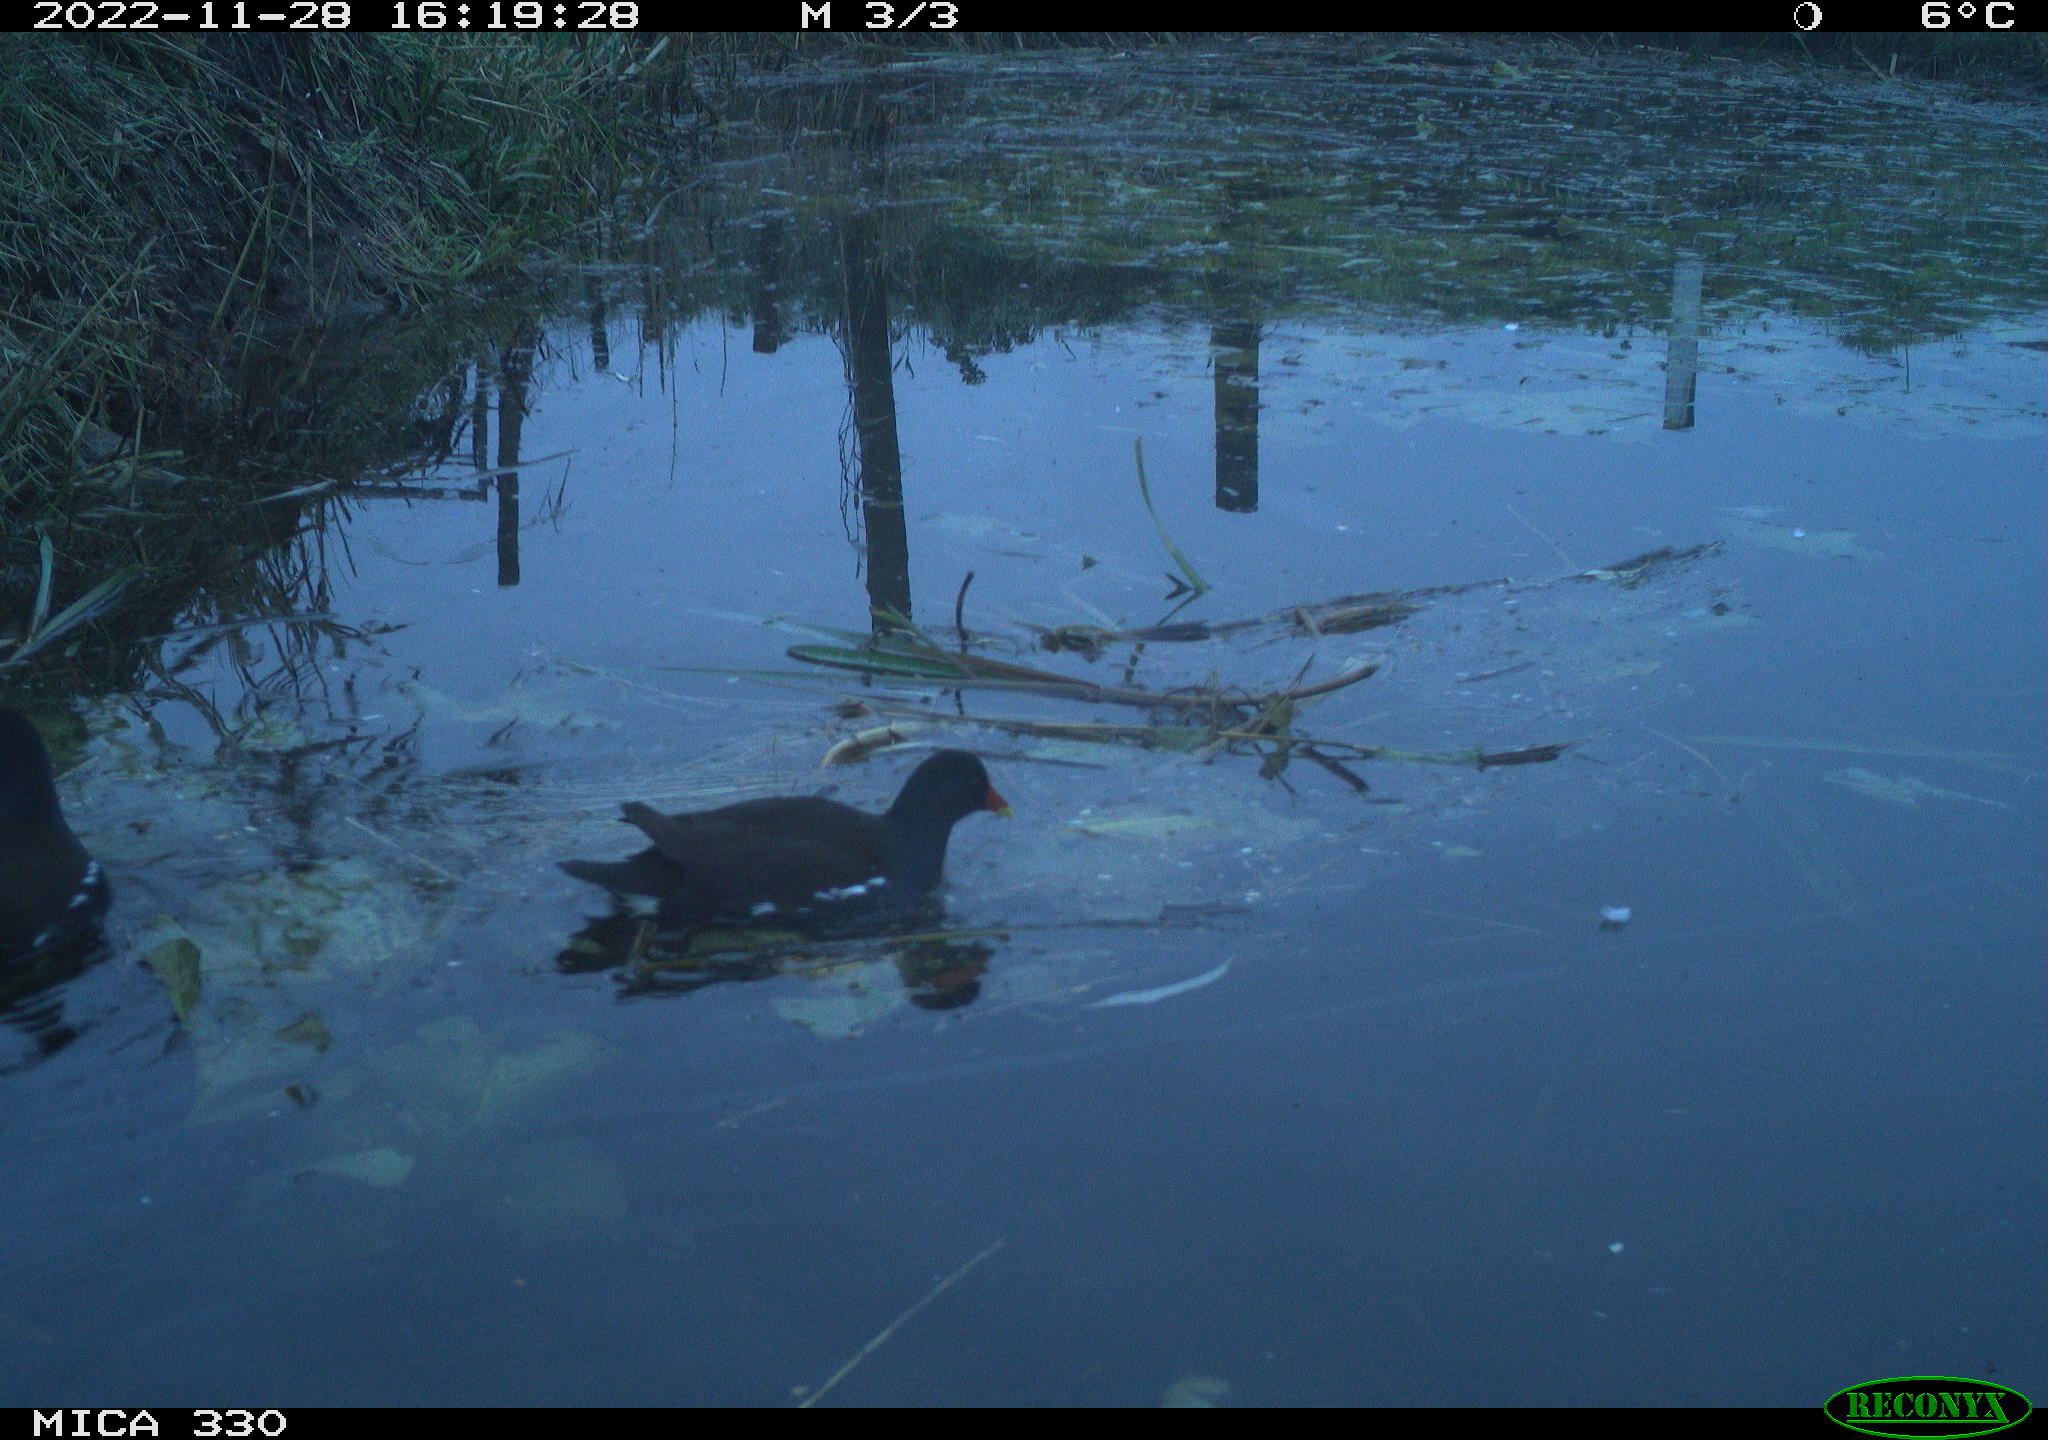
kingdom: Animalia
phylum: Chordata
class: Aves
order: Gruiformes
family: Rallidae
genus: Gallinula
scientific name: Gallinula chloropus
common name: Common moorhen
